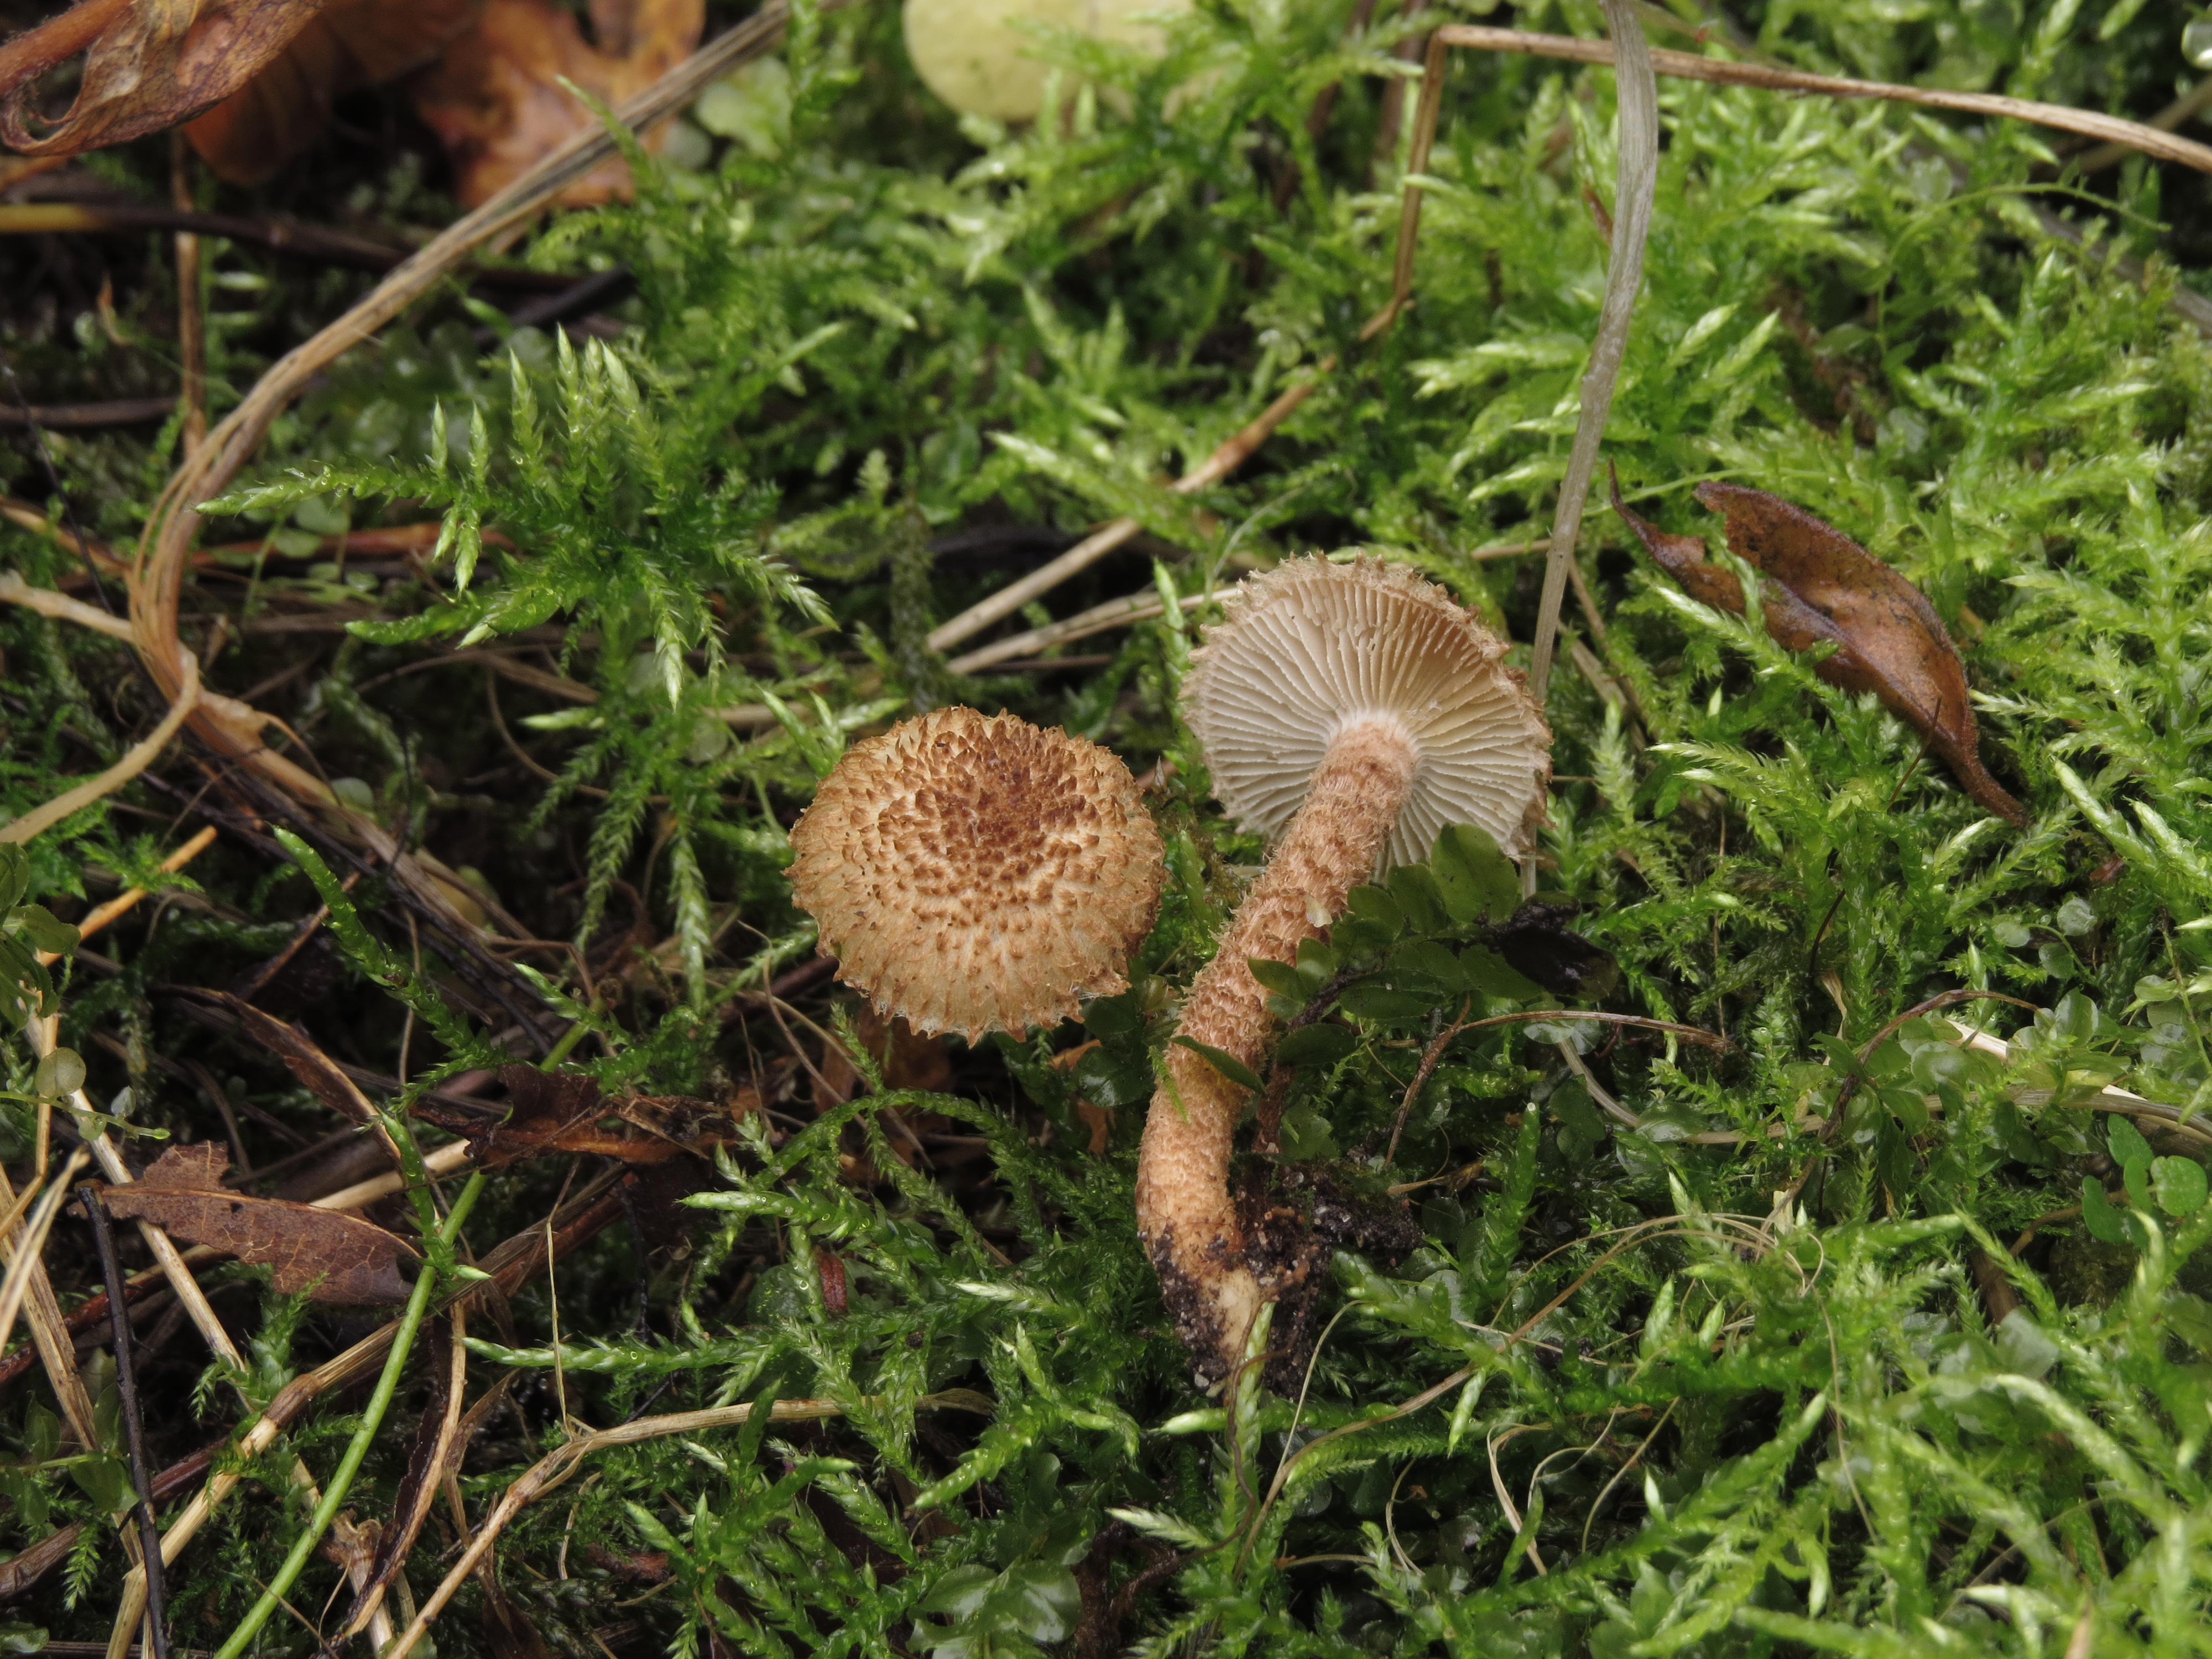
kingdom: Fungi
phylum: Basidiomycota
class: Agaricomycetes
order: Agaricales
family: Inocybaceae
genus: Inocybe
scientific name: Inocybe hystrix
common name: Scaly fibrecap
